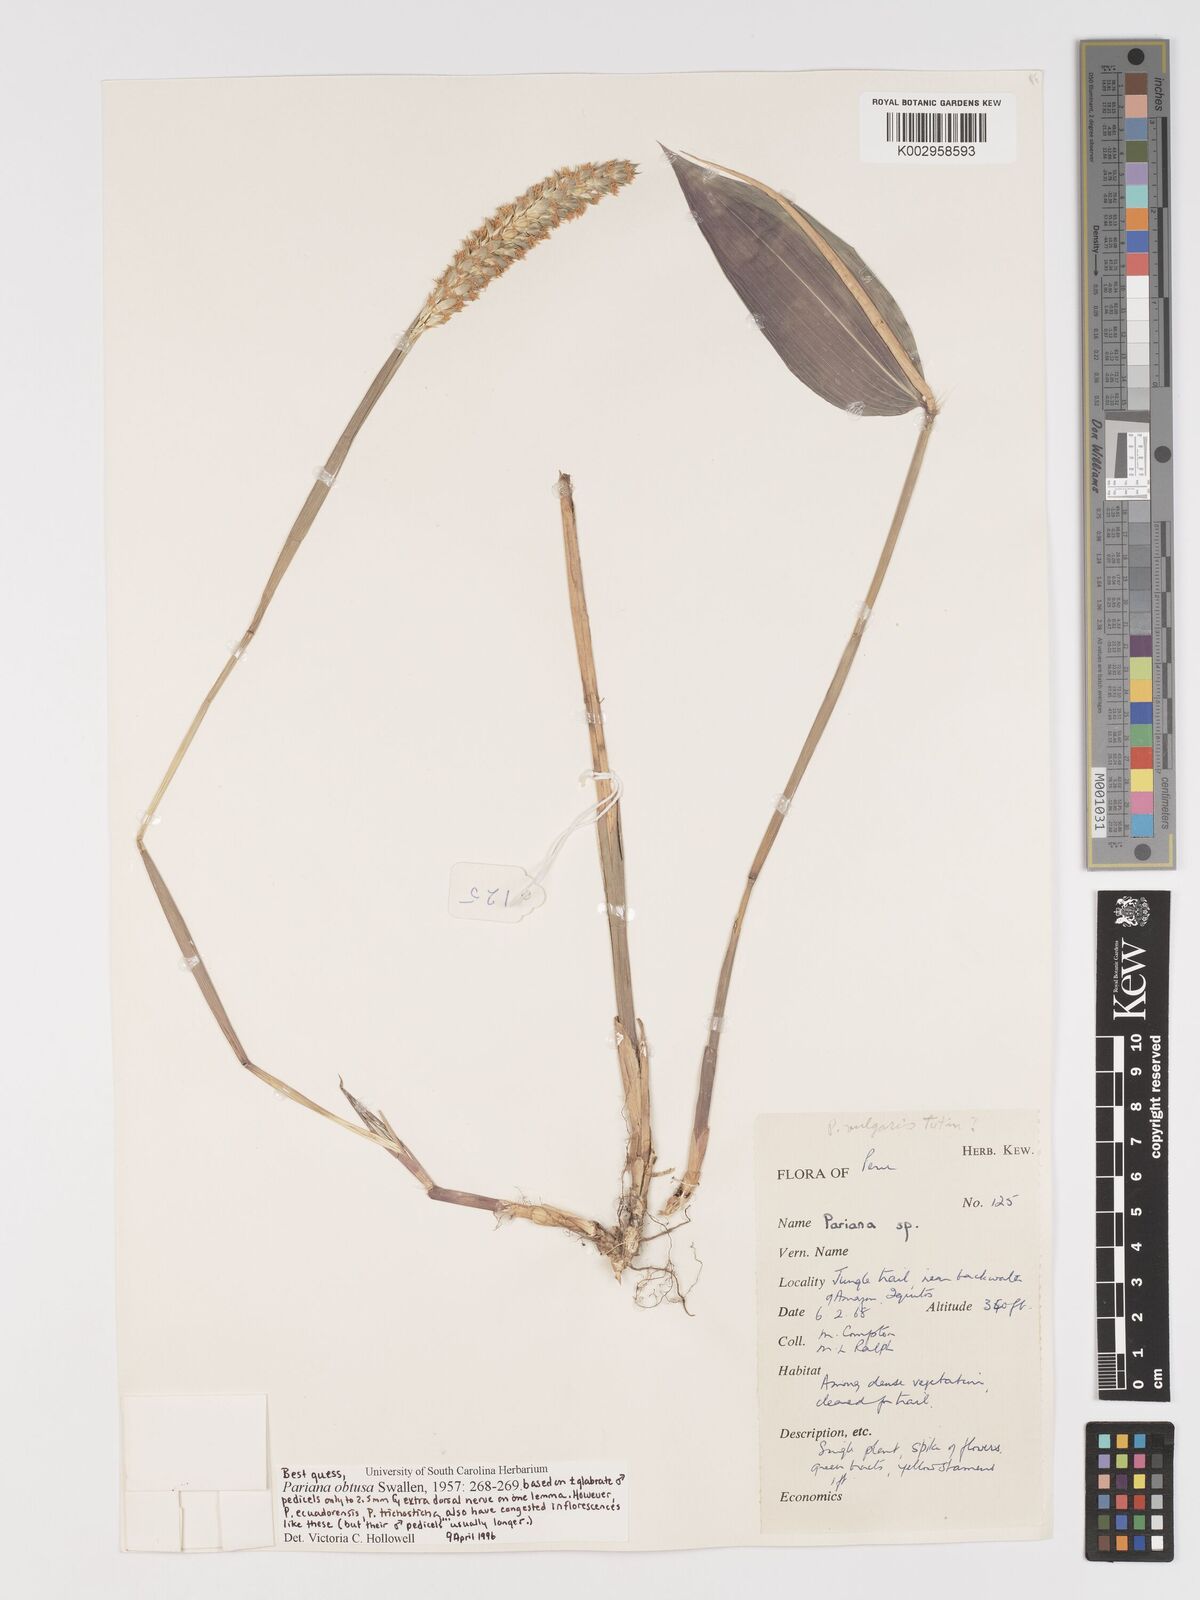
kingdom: Plantae
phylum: Tracheophyta
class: Liliopsida
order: Poales
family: Poaceae
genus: Pariana
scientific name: Pariana obtusa
